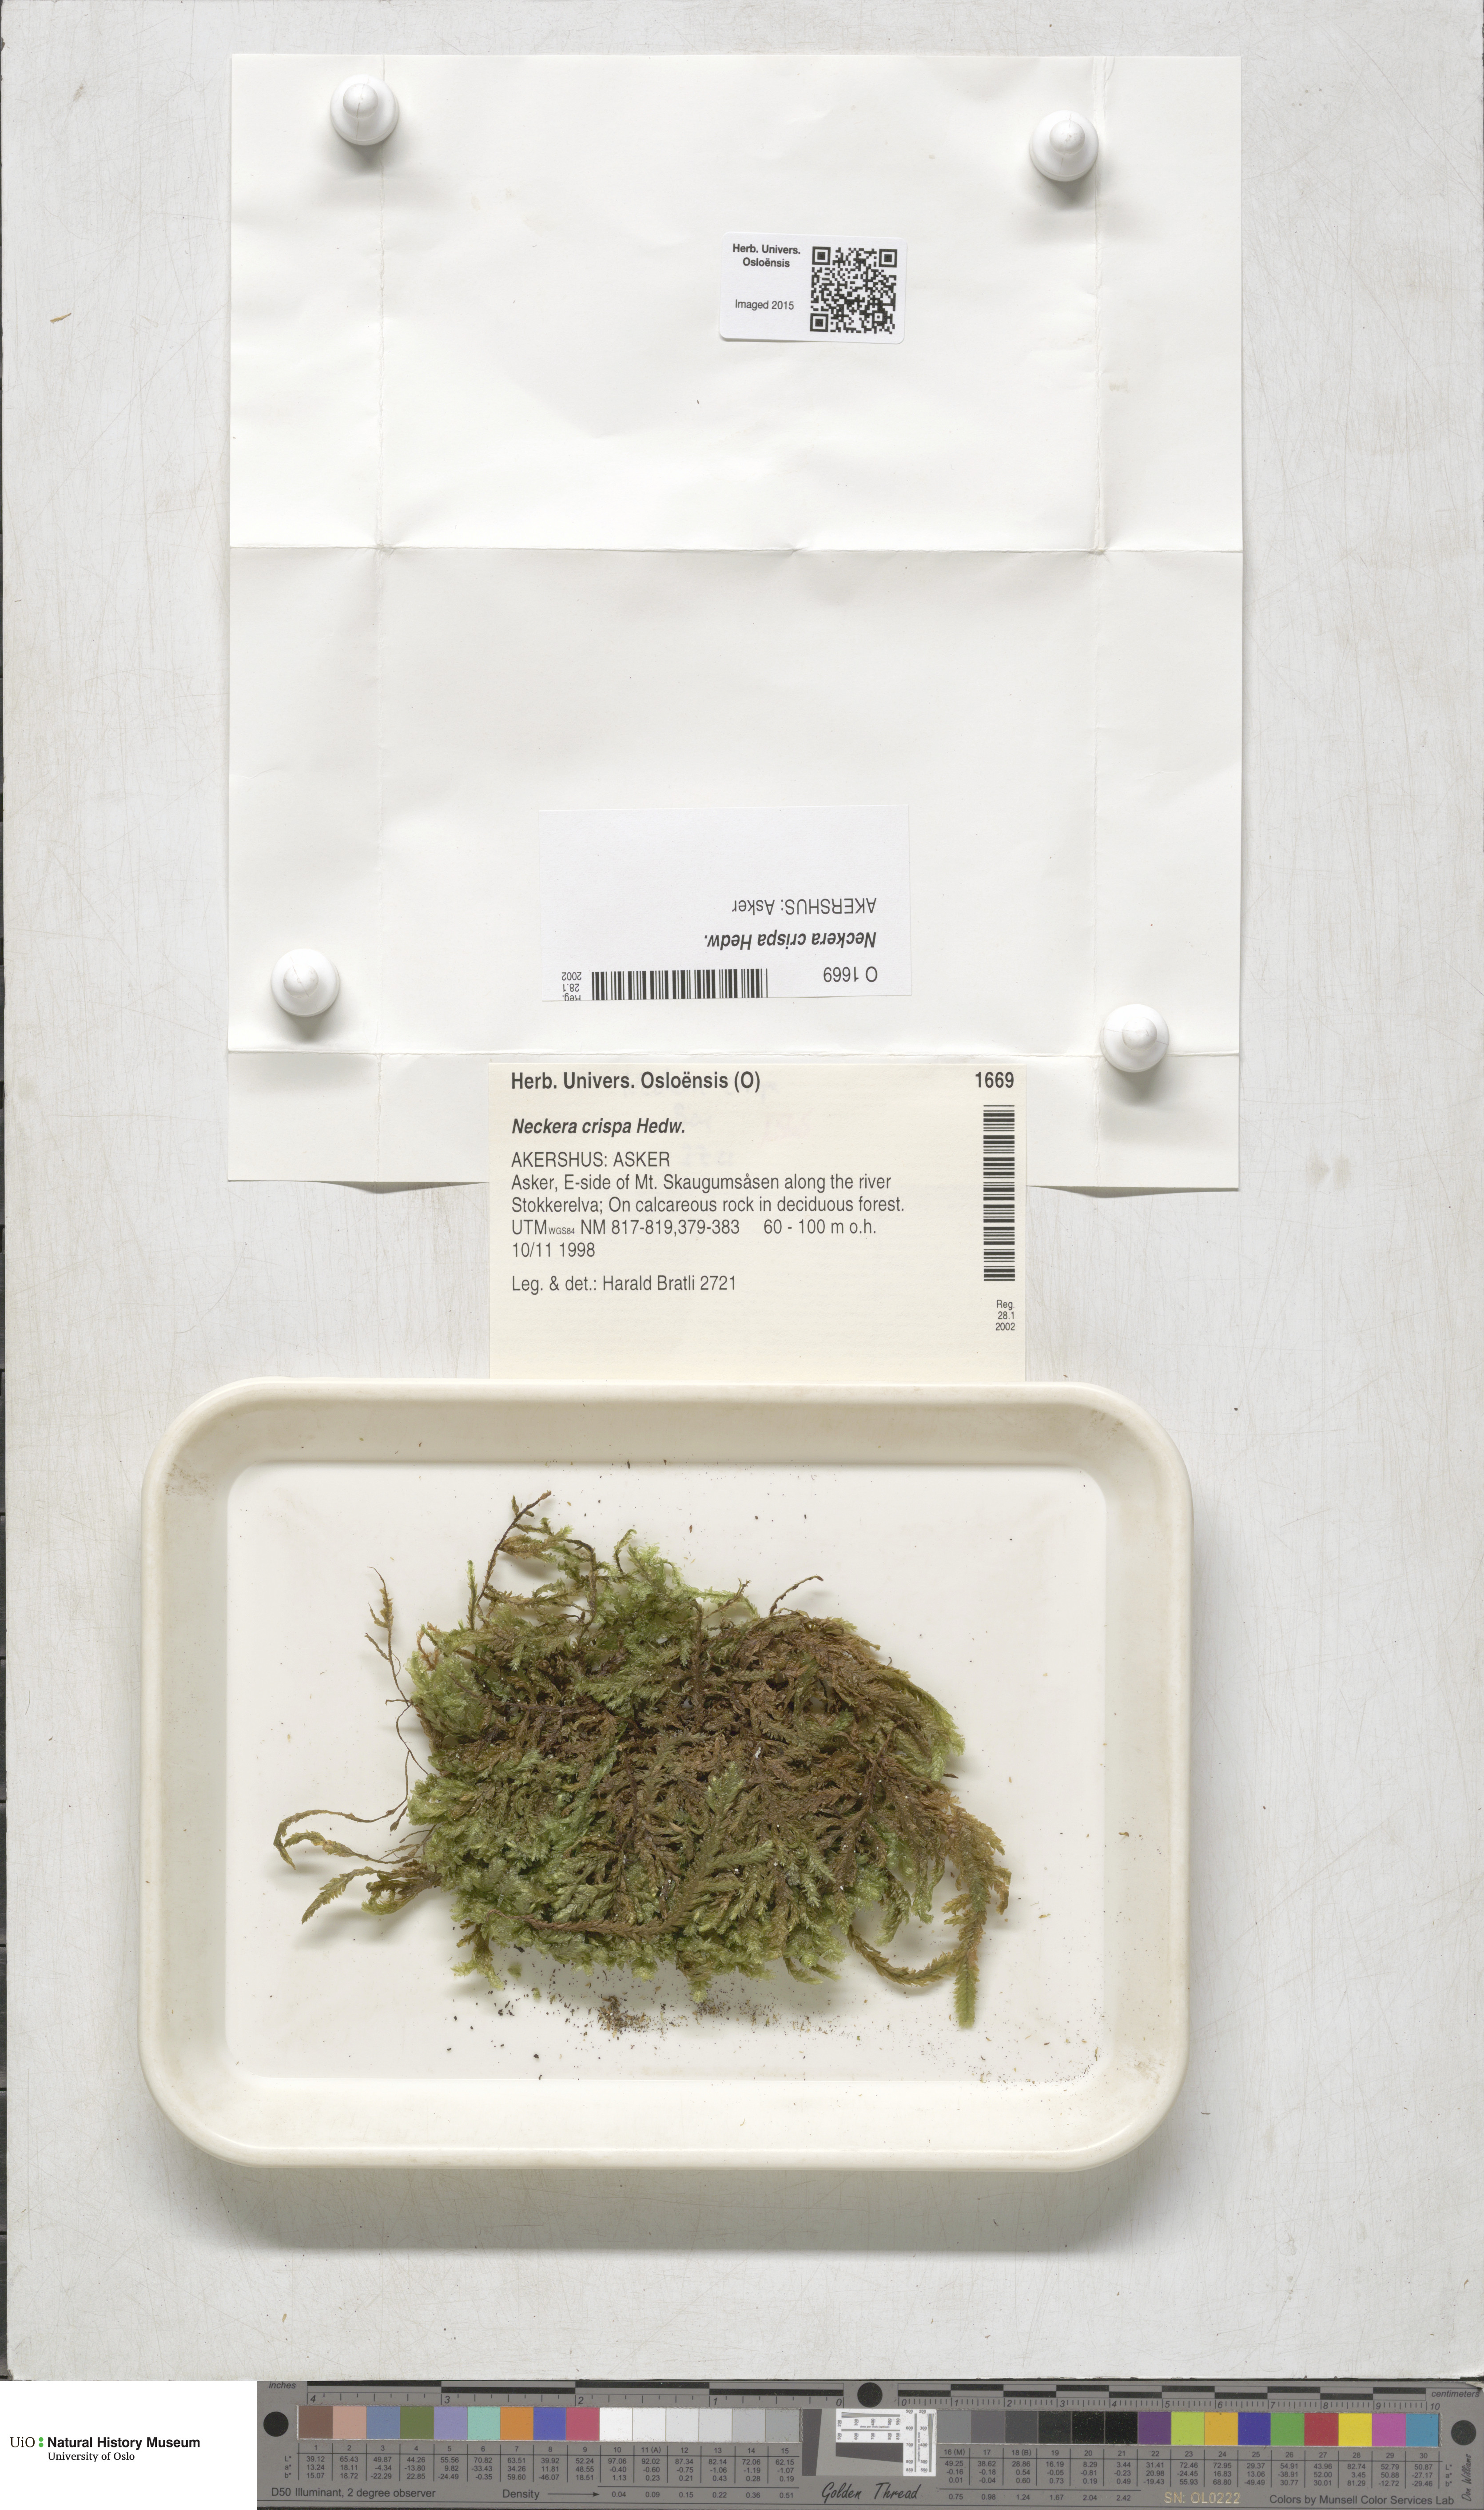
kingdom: Plantae
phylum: Bryophyta
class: Bryopsida
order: Hypnales
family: Neckeraceae
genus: Exsertotheca
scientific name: Exsertotheca crispa
